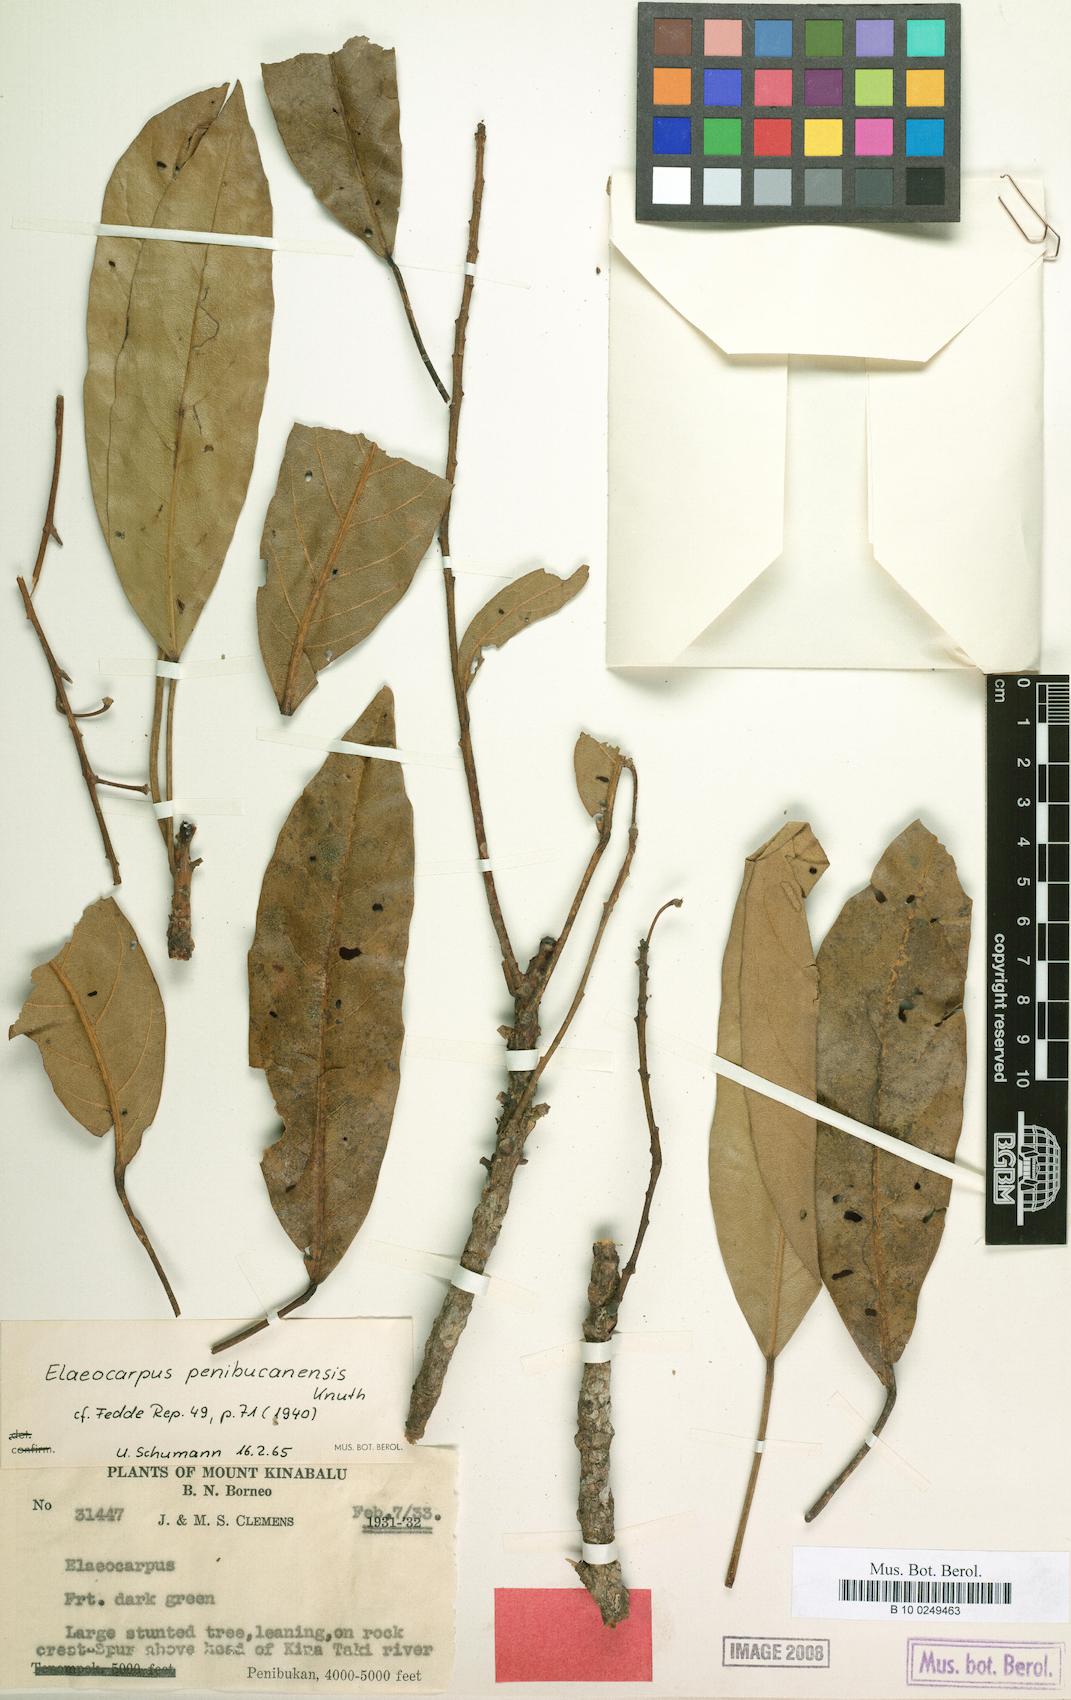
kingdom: Plantae
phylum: Tracheophyta
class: Magnoliopsida
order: Oxalidales
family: Elaeocarpaceae
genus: Elaeocarpus
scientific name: Elaeocarpus sadikanensis
